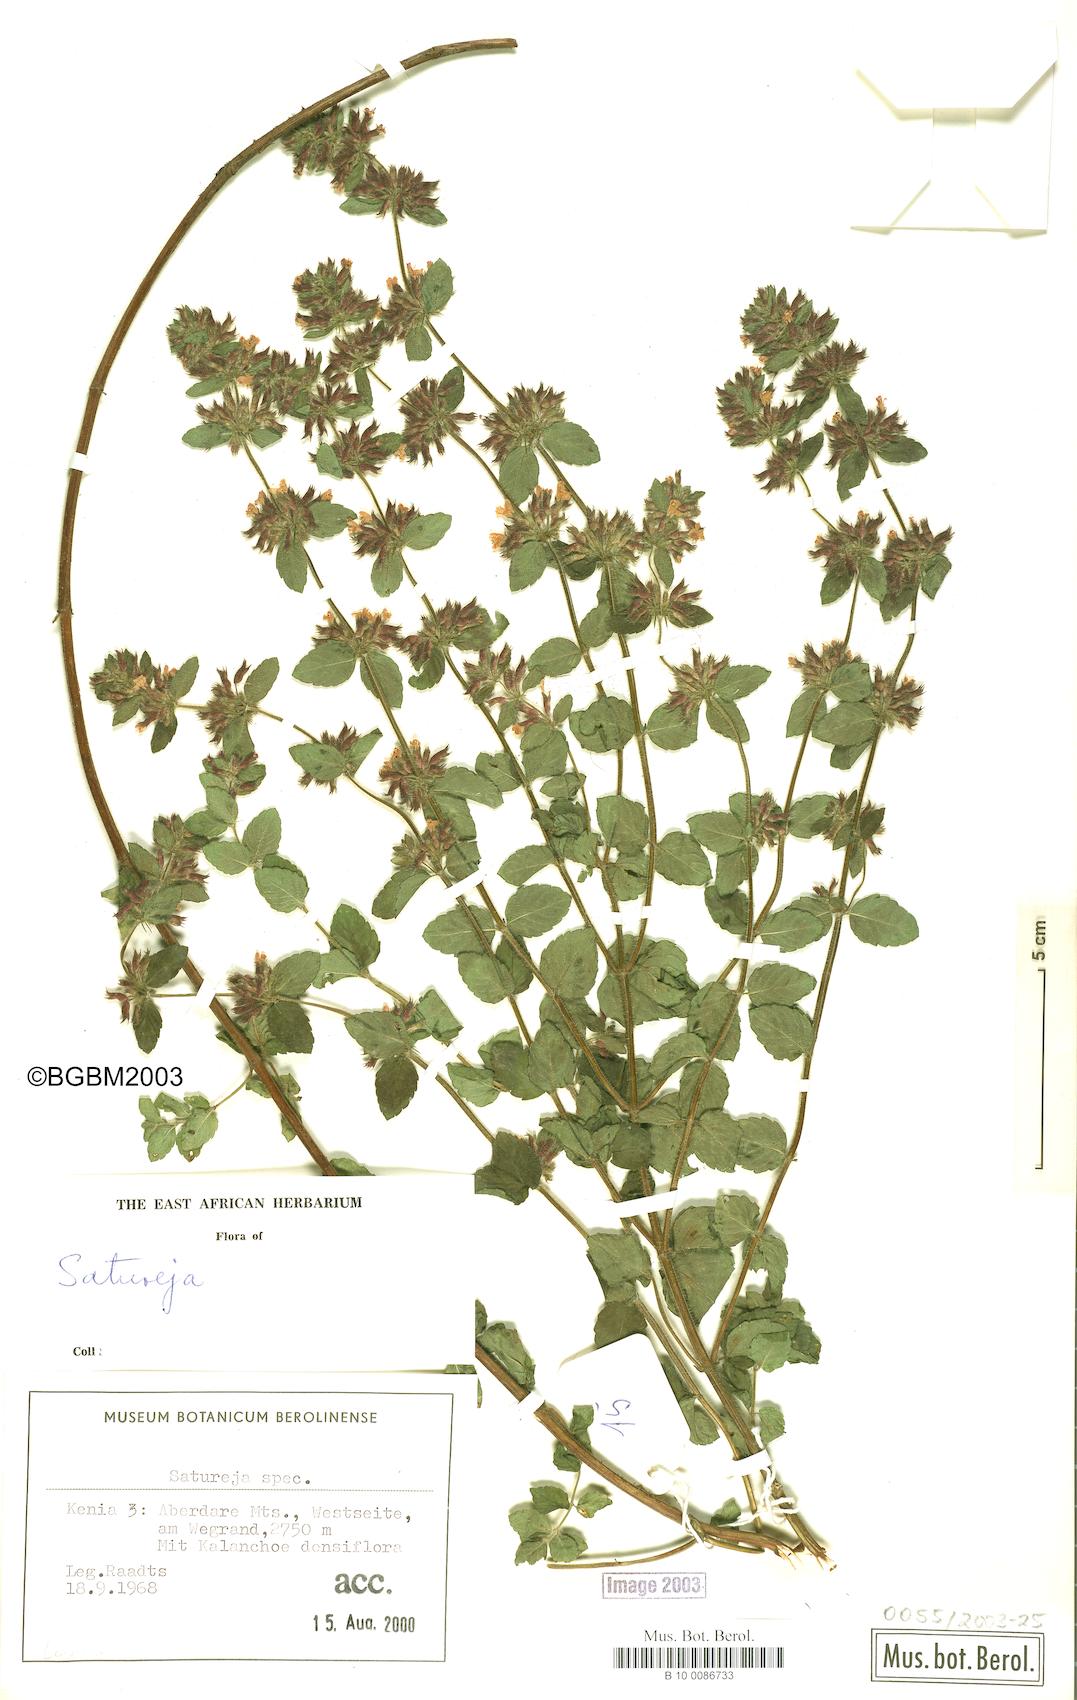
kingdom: Plantae
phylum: Tracheophyta
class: Magnoliopsida
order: Lamiales
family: Lamiaceae
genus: Satureja
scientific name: Satureja
